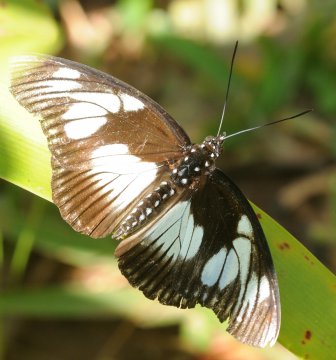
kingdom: Animalia
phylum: Arthropoda
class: Insecta
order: Lepidoptera
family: Nymphalidae
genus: Chloropoea
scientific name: Chloropoea lucretia
